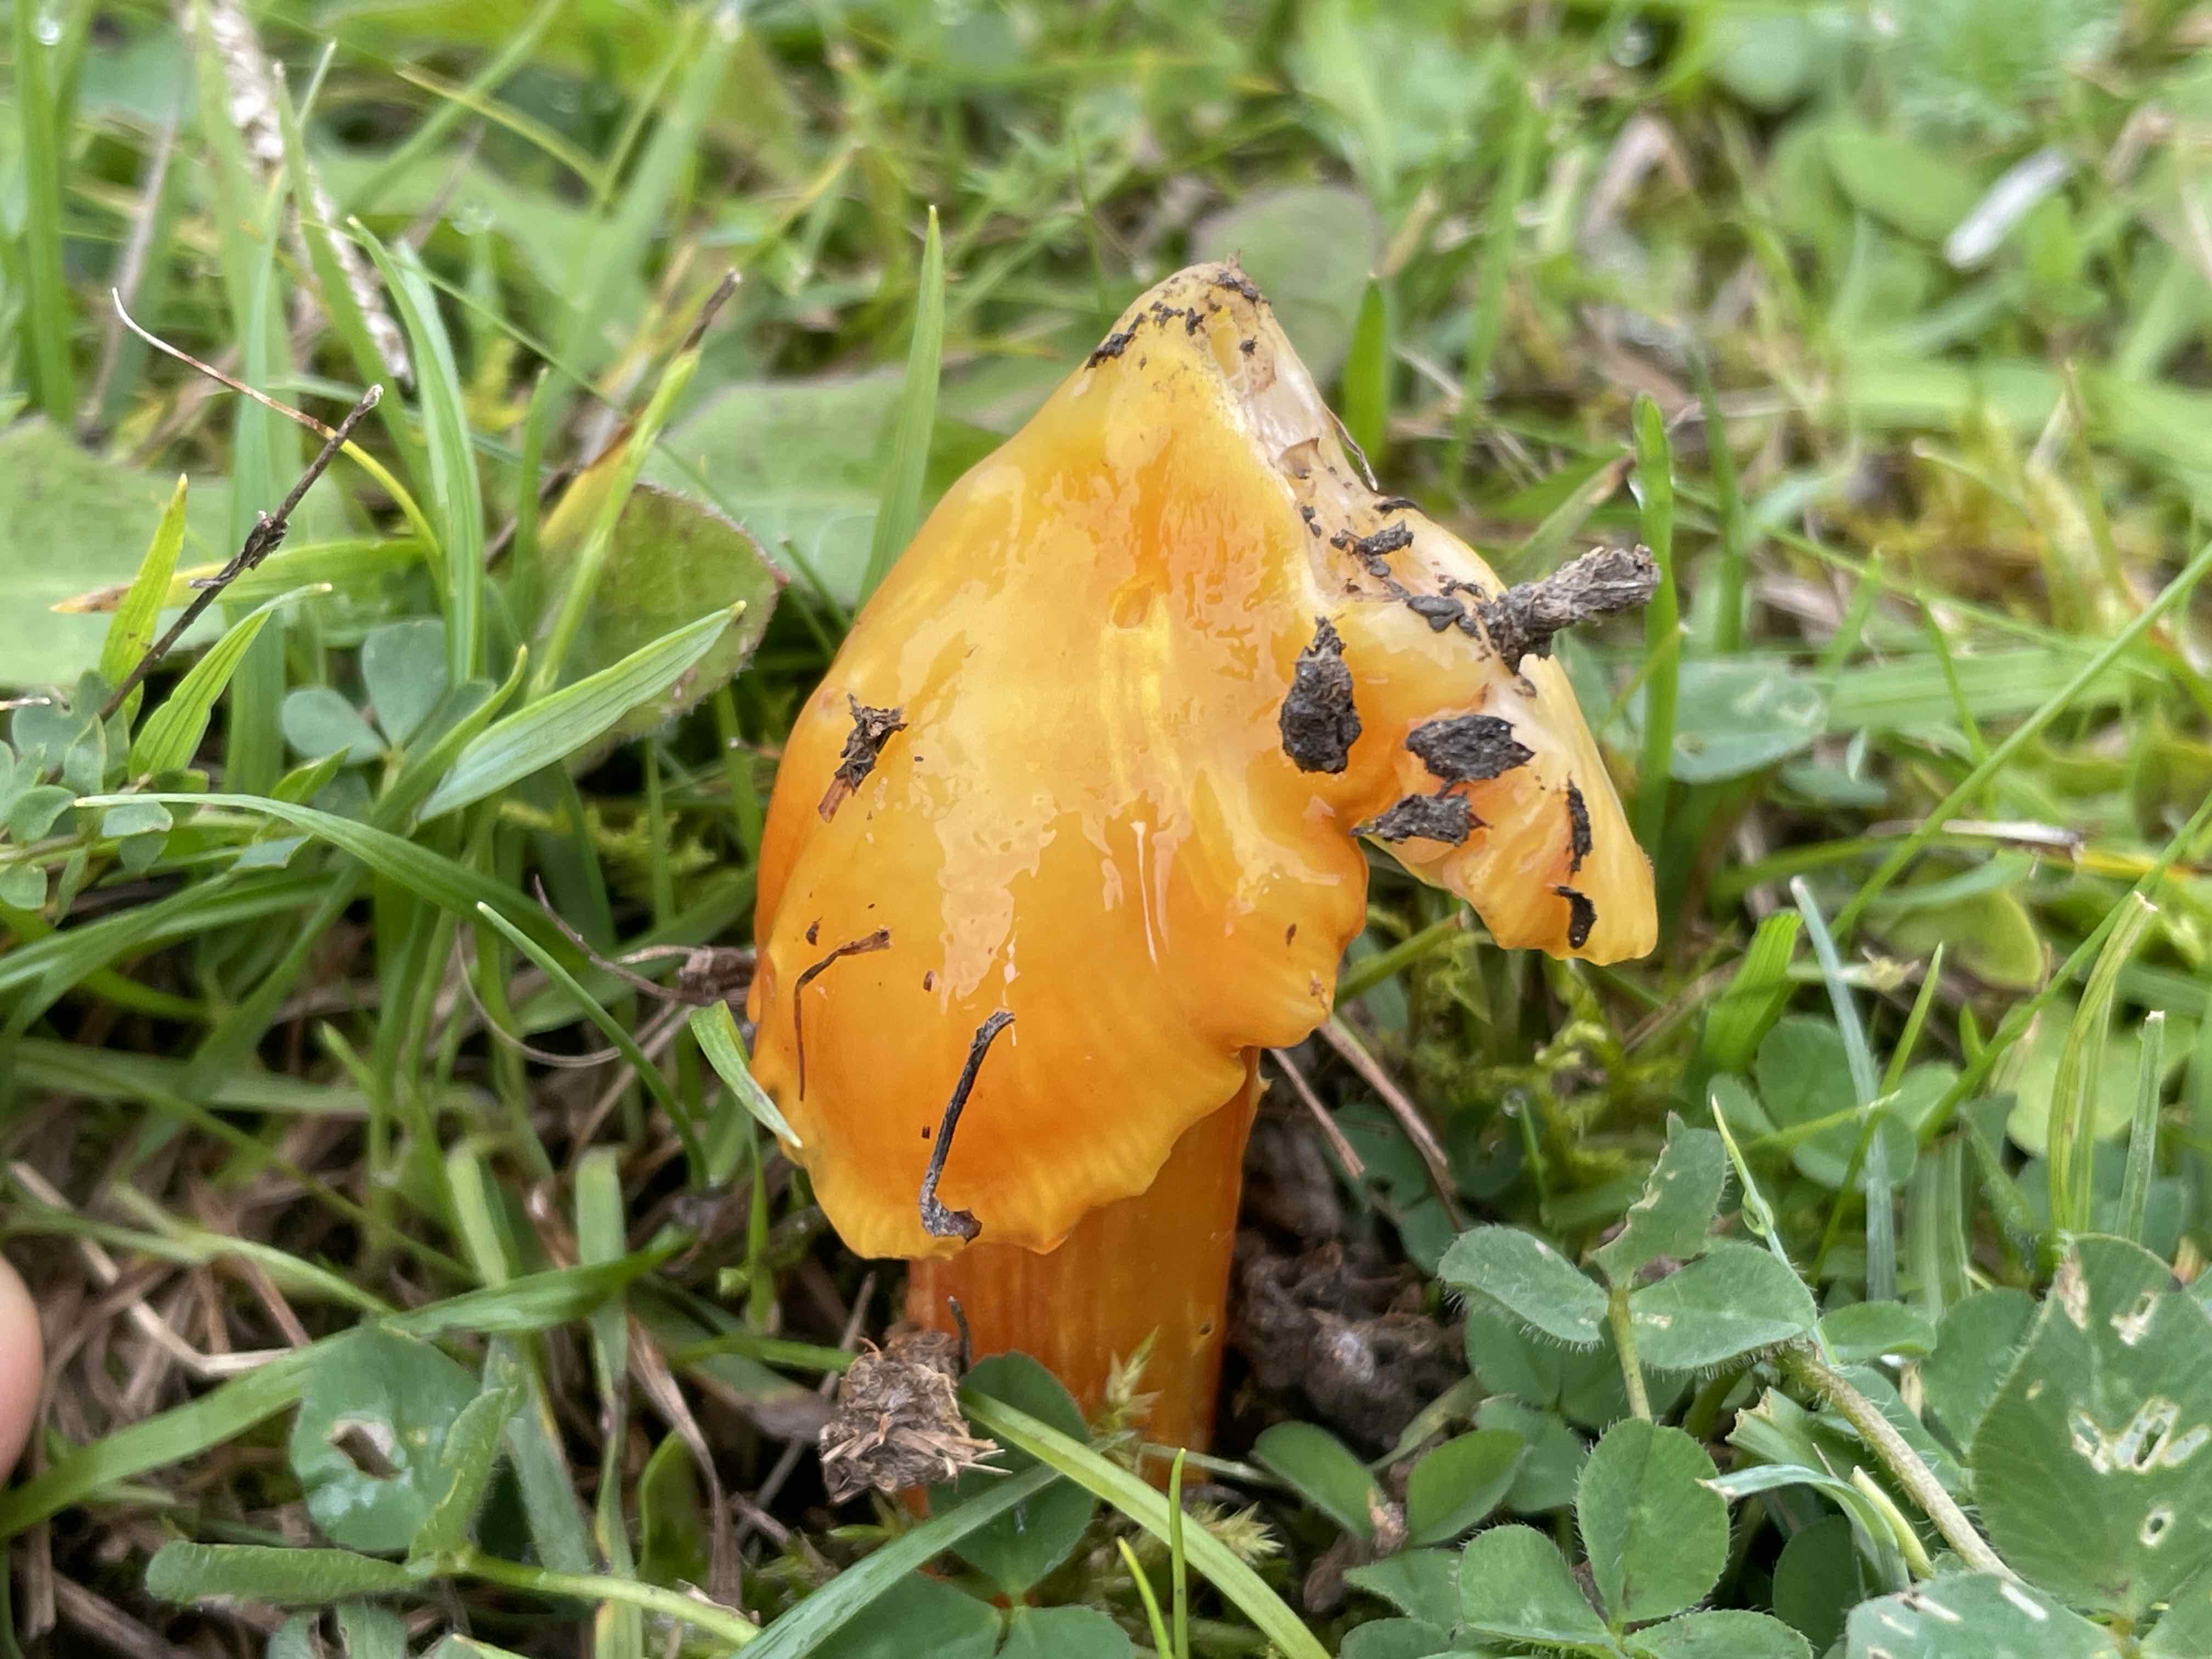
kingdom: Fungi
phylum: Basidiomycota
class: Agaricomycetes
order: Agaricales
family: Hygrophoraceae
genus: Hygrocybe
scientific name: Hygrocybe acutoconica
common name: Konrads vokshat
